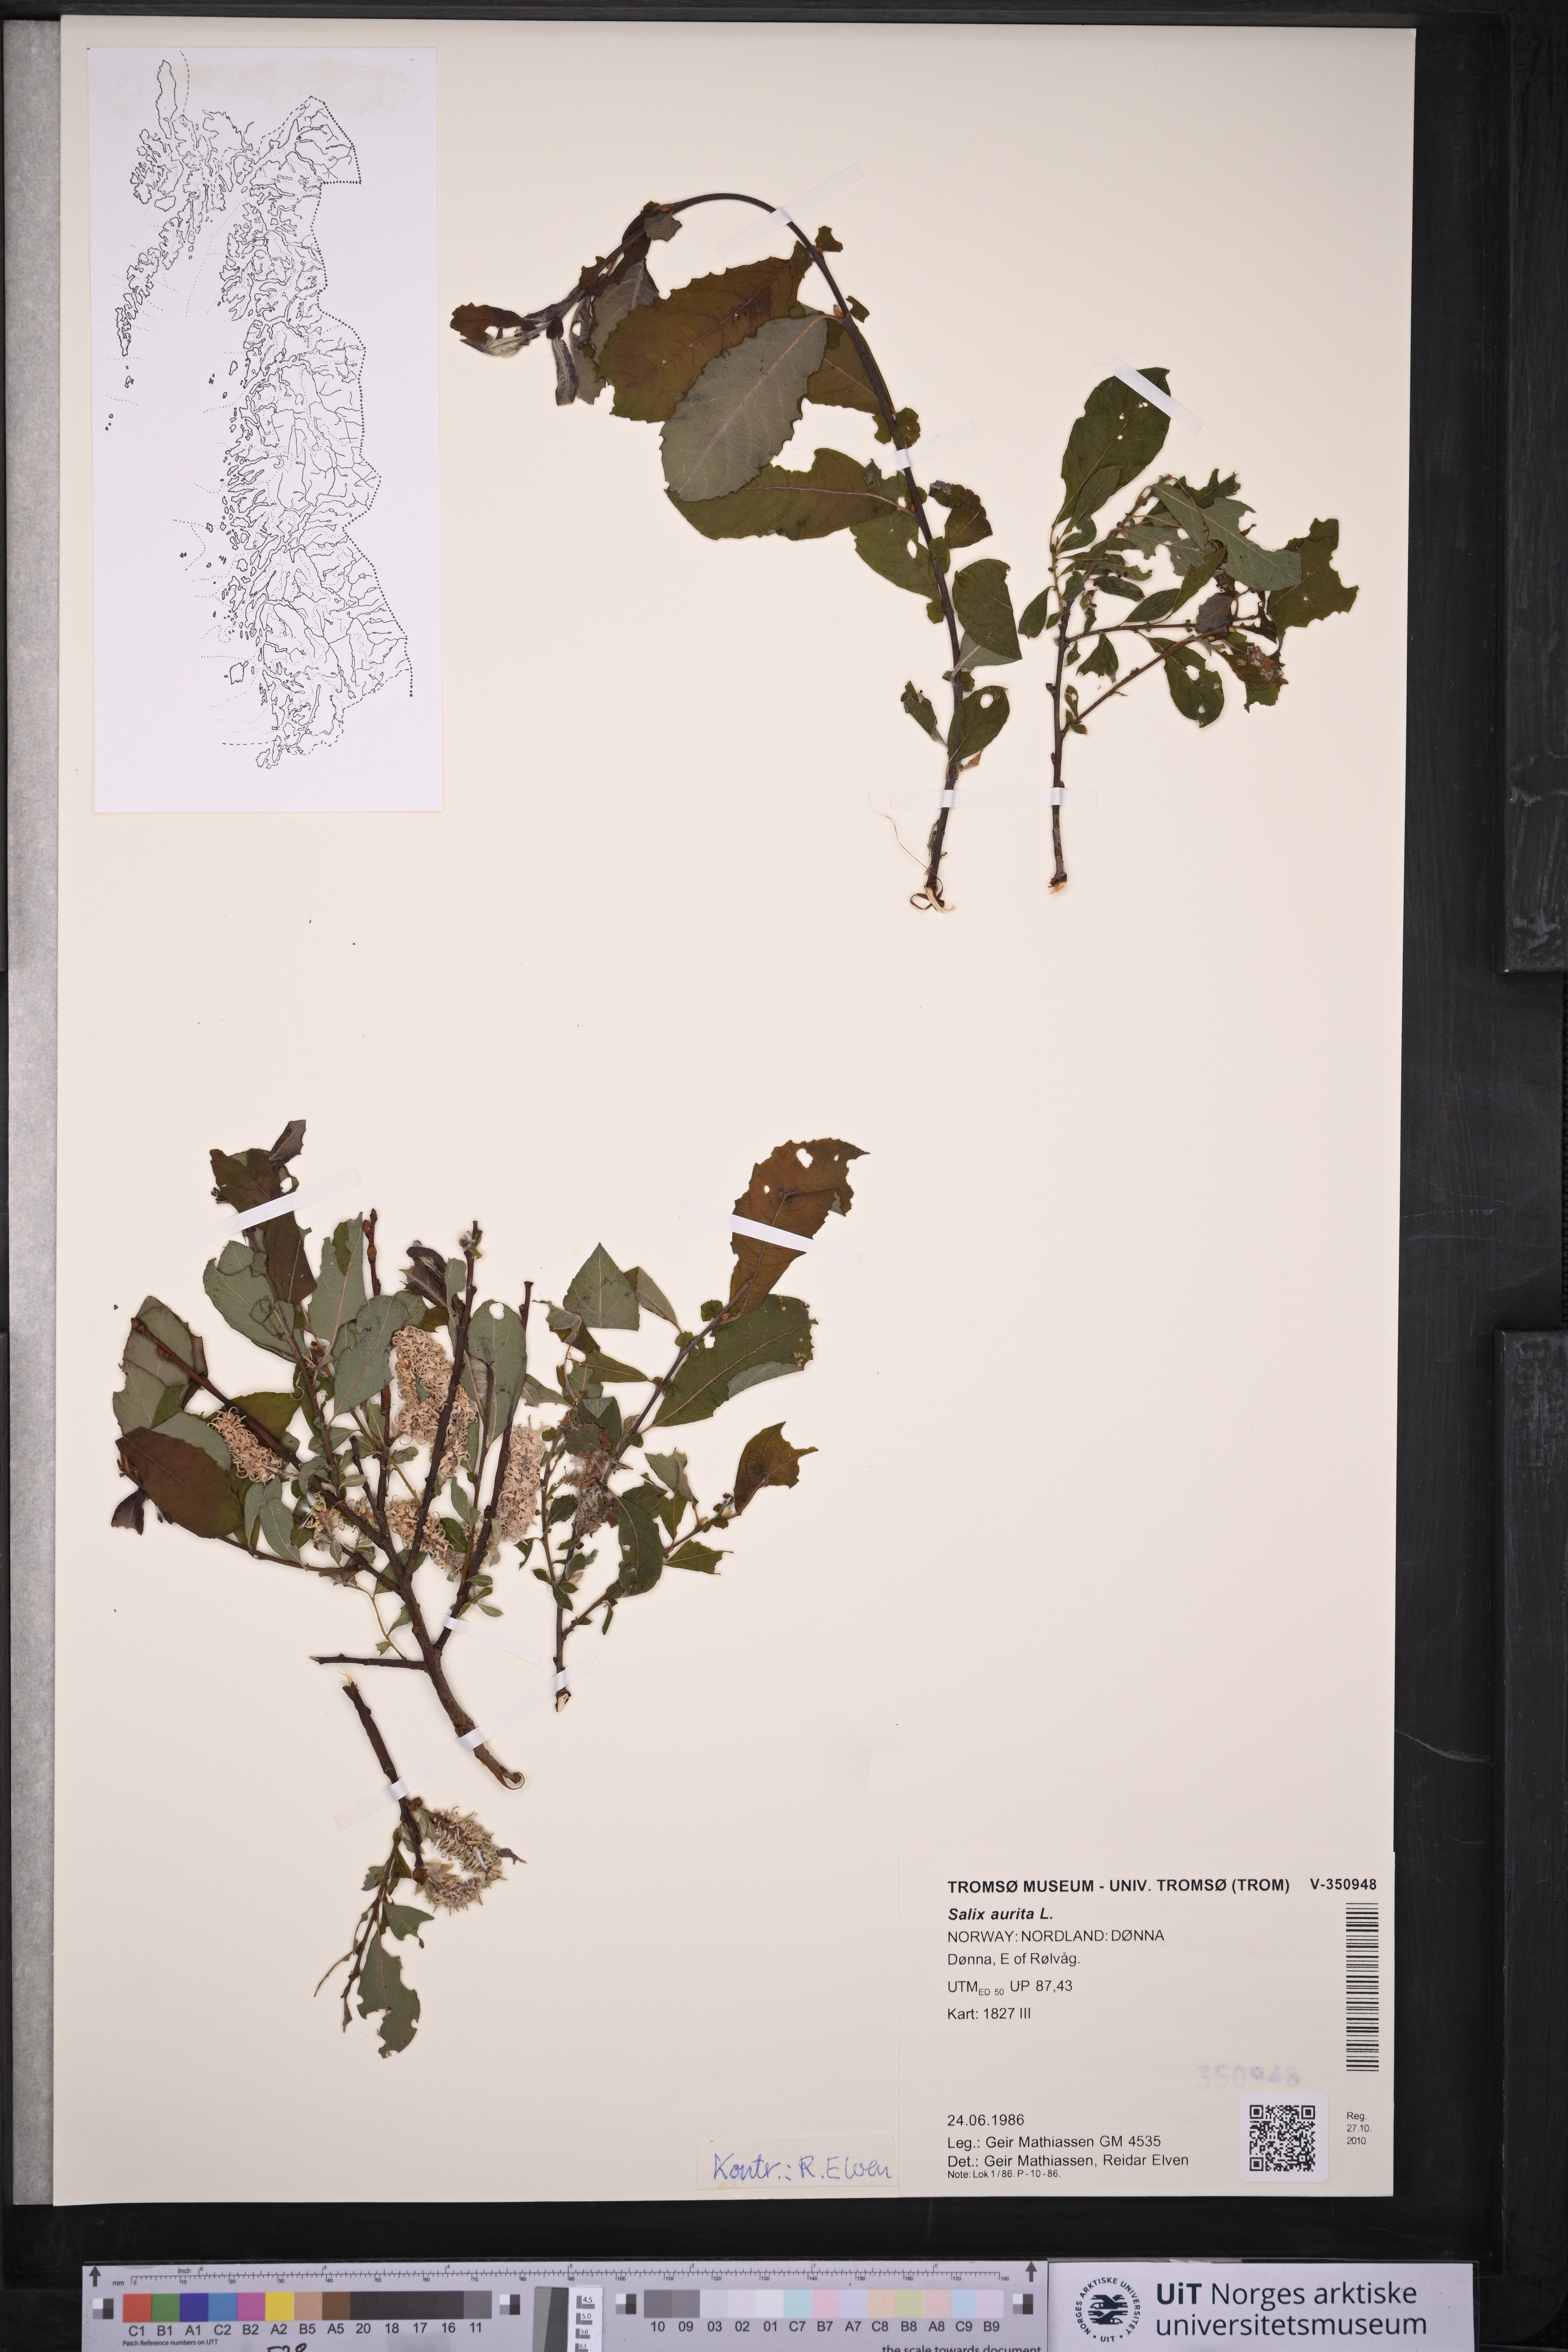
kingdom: Plantae
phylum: Tracheophyta
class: Magnoliopsida
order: Malpighiales
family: Salicaceae
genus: Salix
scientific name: Salix aurita
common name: Eared willow
